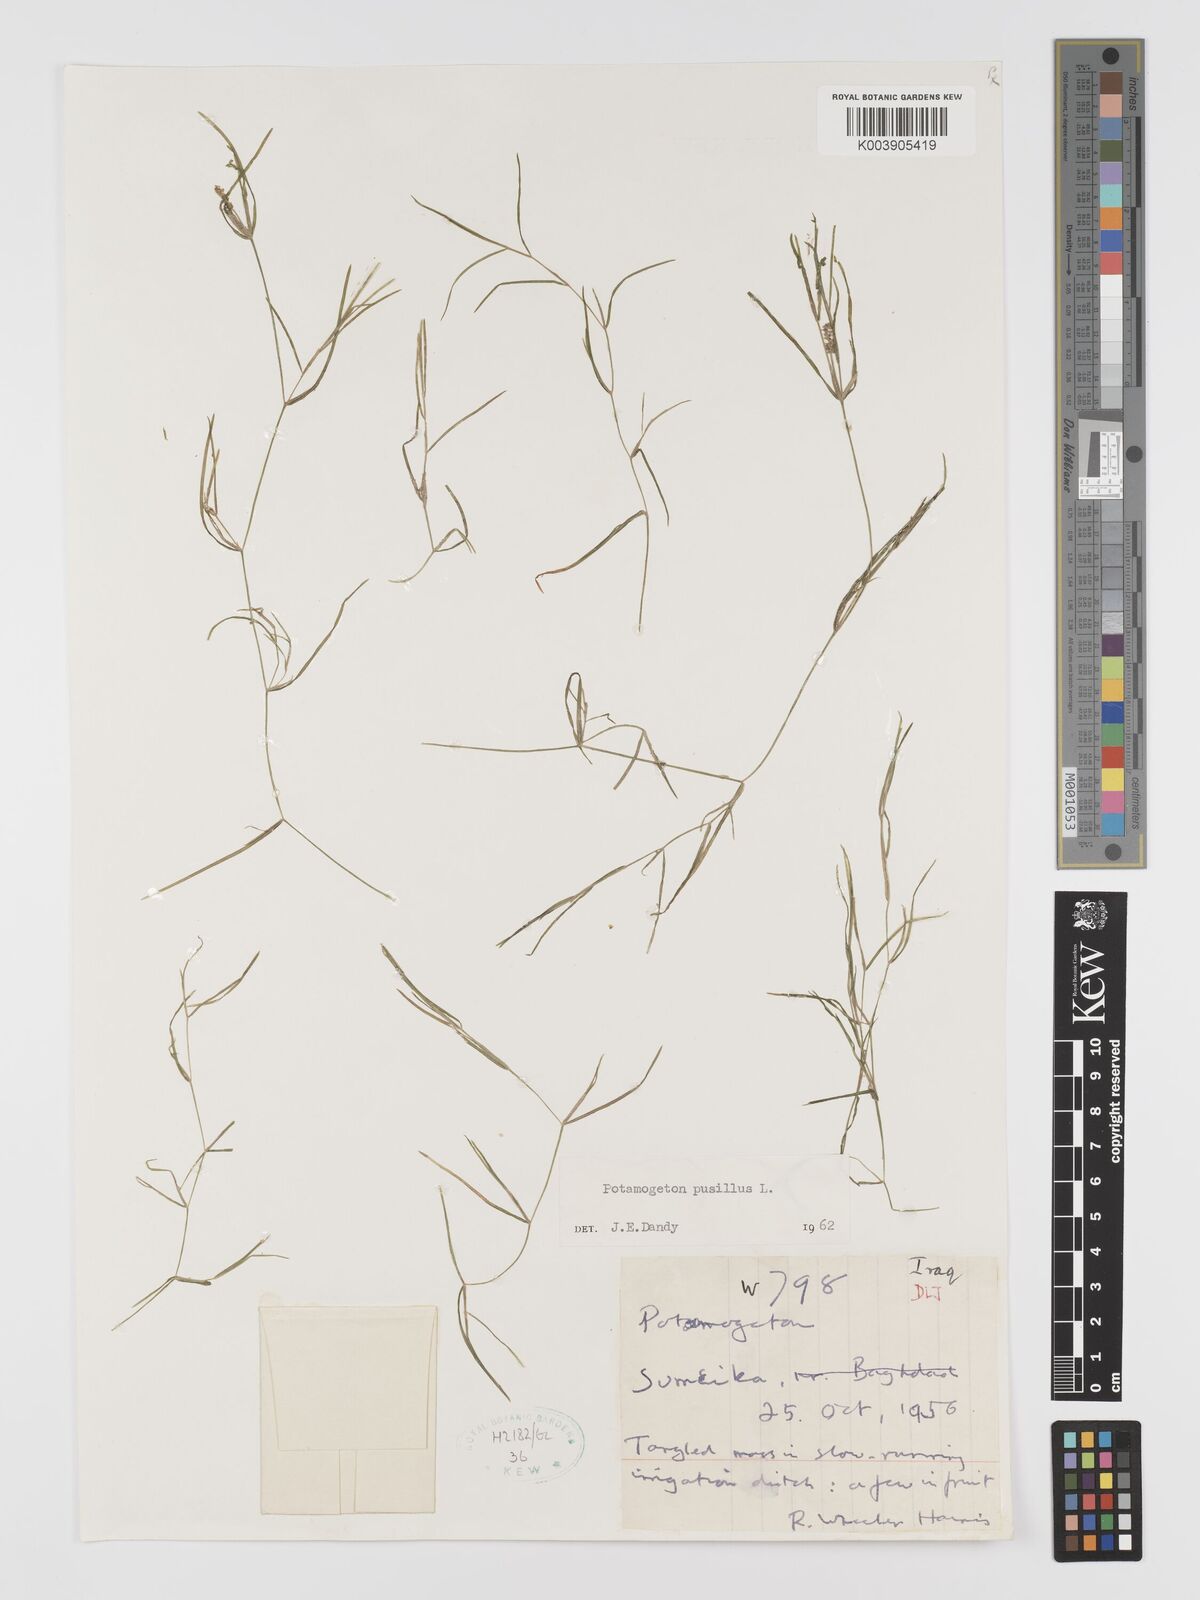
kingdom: Plantae
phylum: Tracheophyta
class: Liliopsida
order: Alismatales
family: Potamogetonaceae
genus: Potamogeton
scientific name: Potamogeton pusillus
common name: Lesser pondweed
